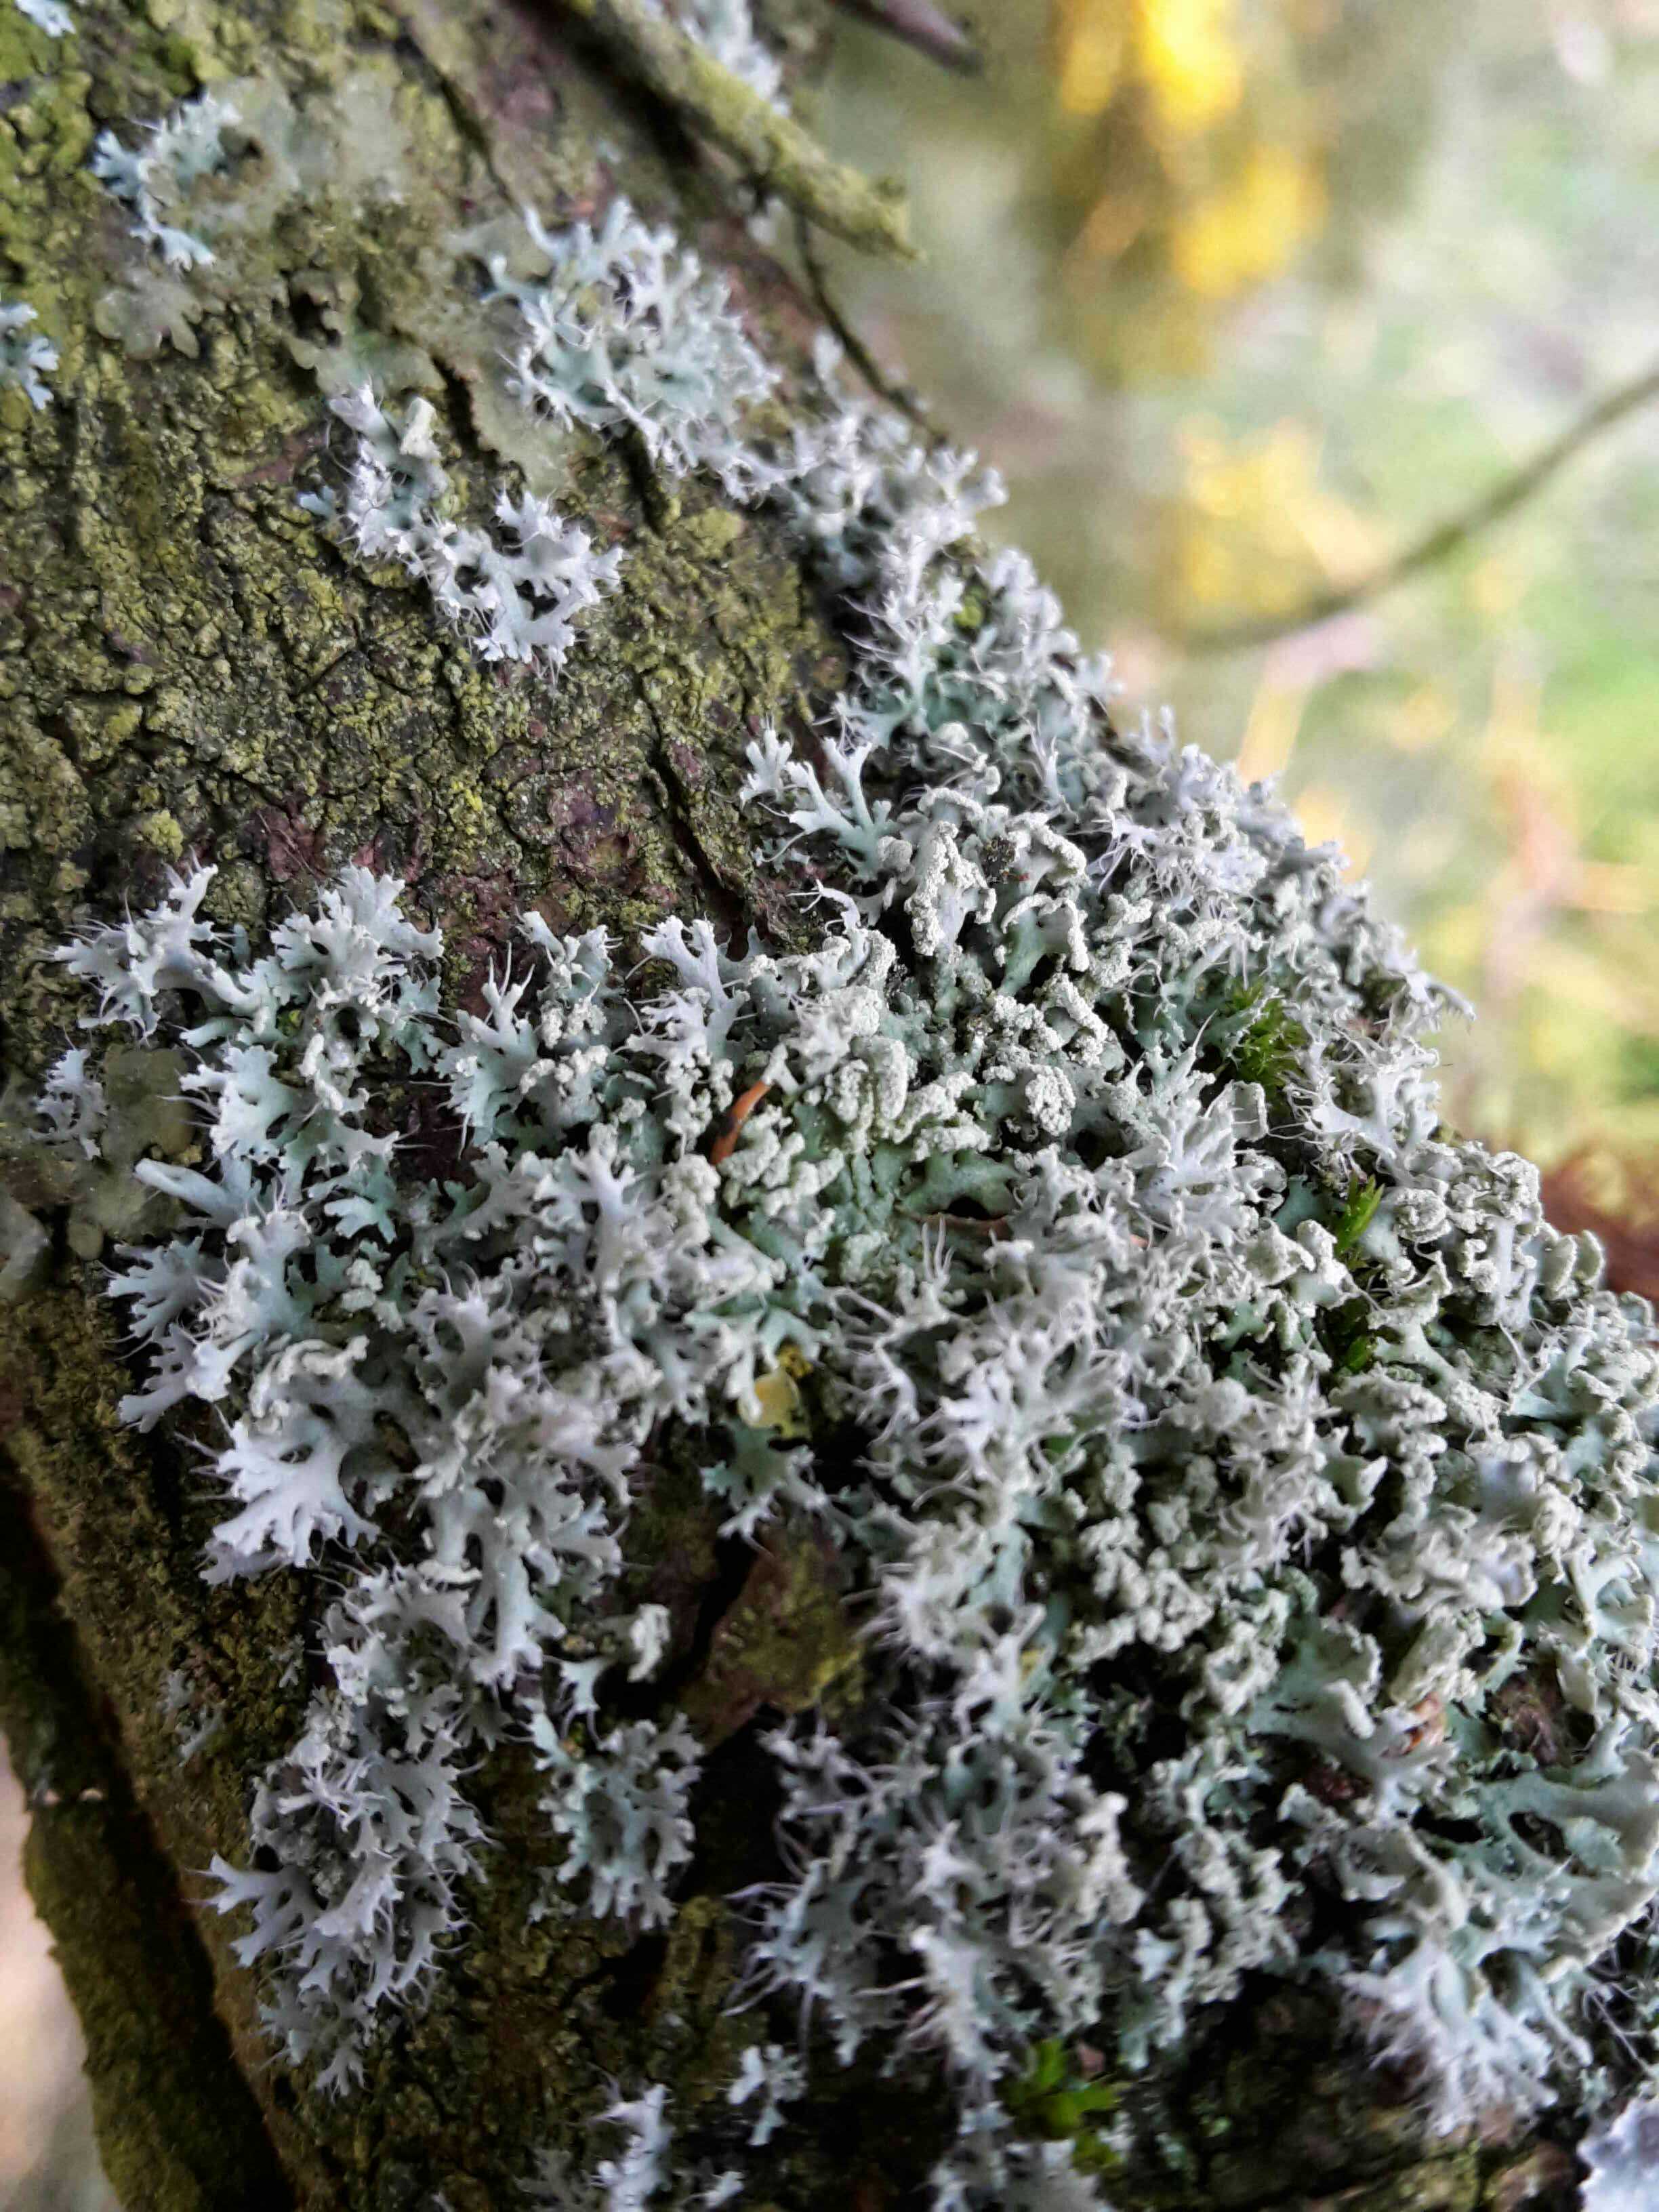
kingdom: Fungi
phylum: Ascomycota
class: Lecanoromycetes
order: Caliciales
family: Physciaceae
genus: Physcia
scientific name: Physcia tenella
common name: spæd rosetlav
